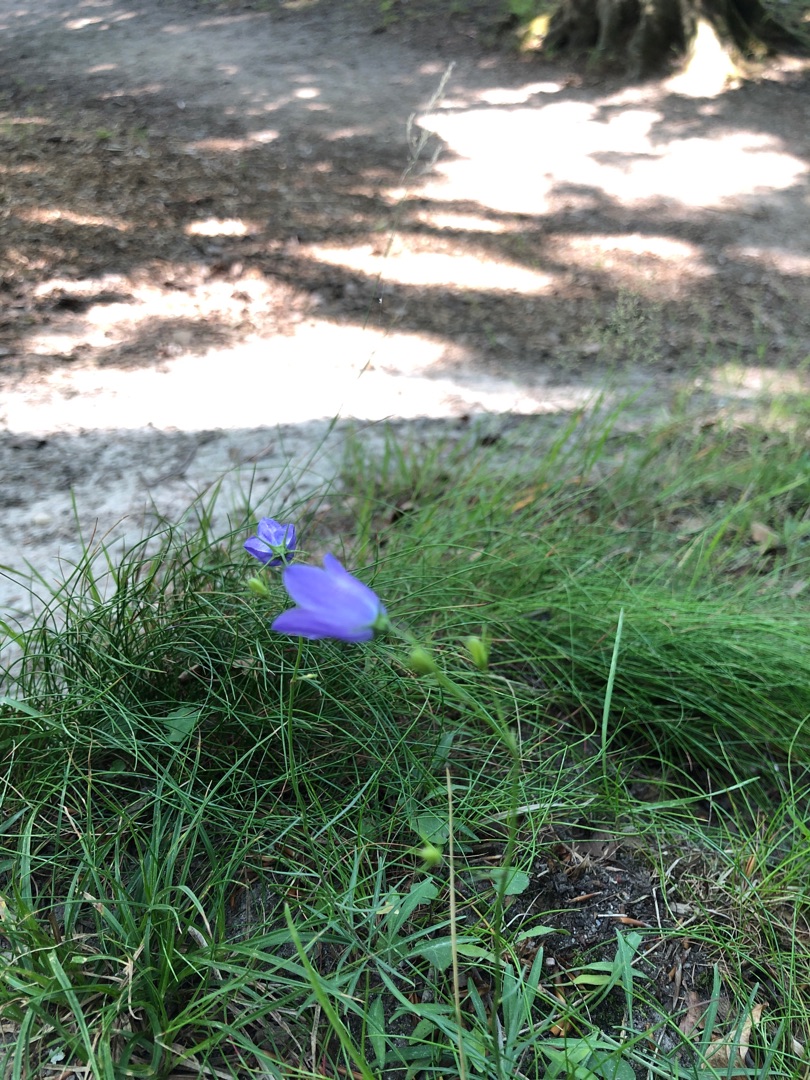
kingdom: Plantae
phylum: Tracheophyta
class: Magnoliopsida
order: Asterales
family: Campanulaceae
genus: Campanula
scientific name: Campanula rotundifolia
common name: Liden klokke
